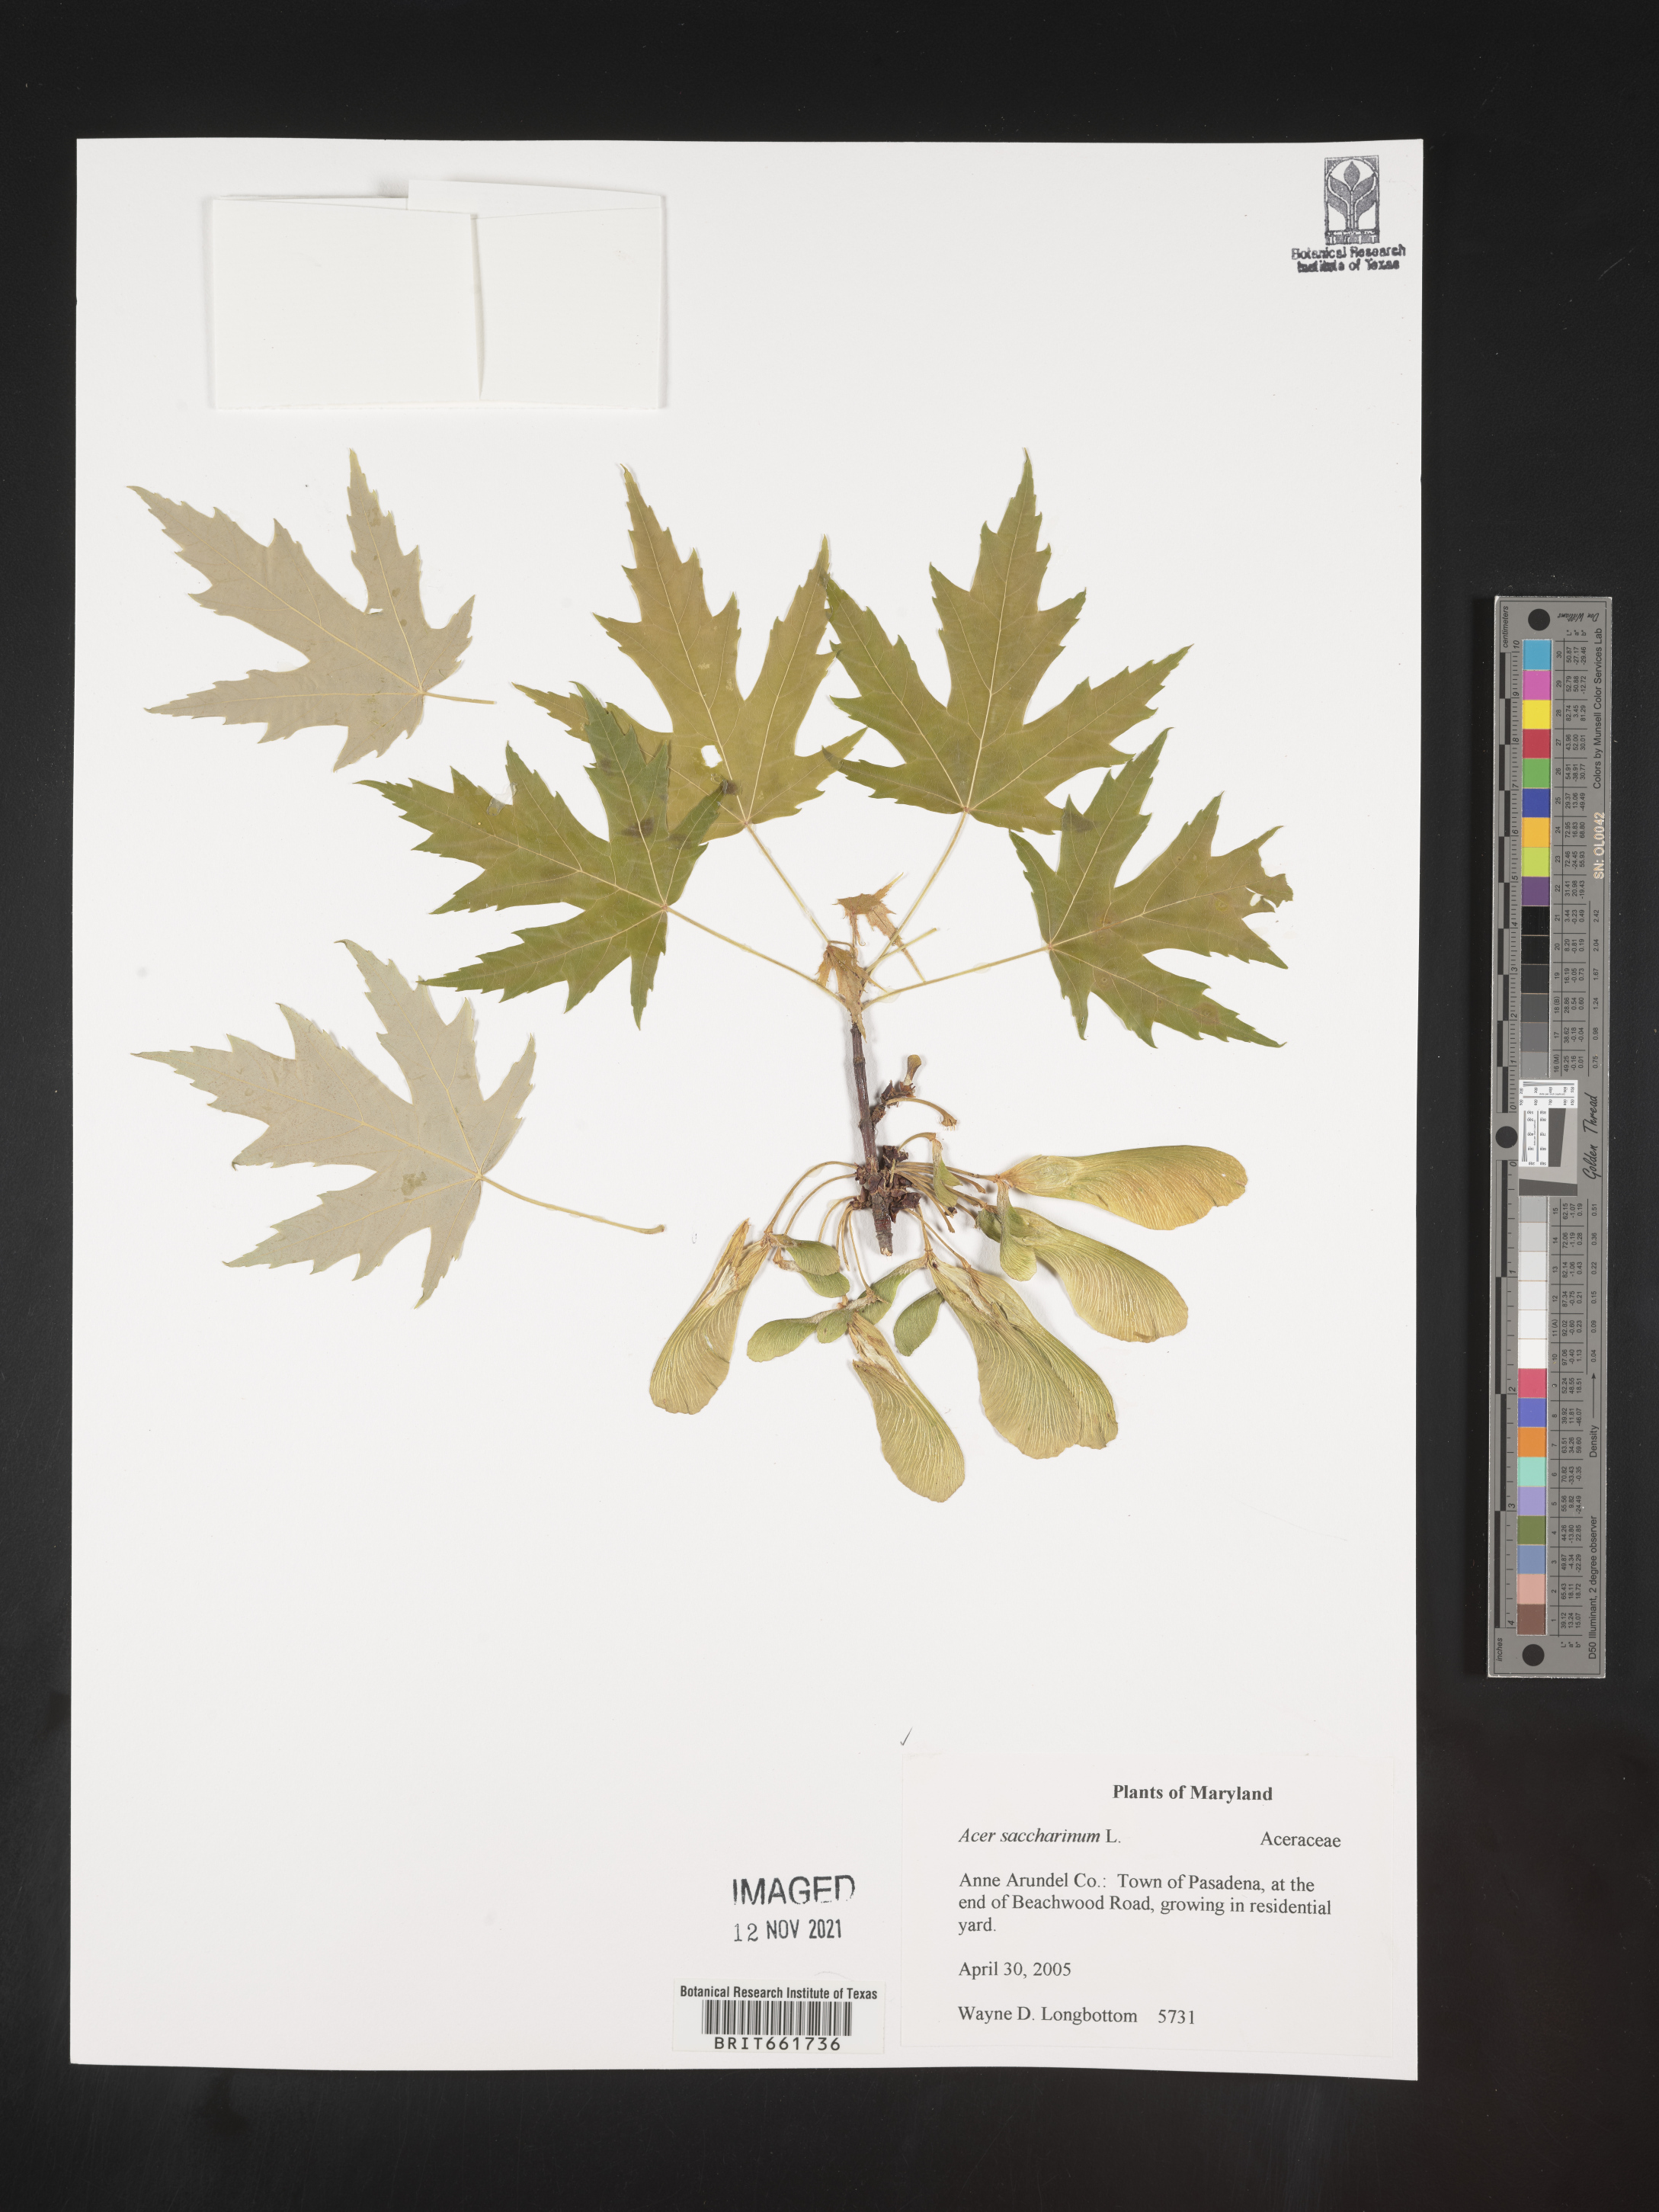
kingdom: Plantae
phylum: Tracheophyta
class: Magnoliopsida
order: Sapindales
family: Sapindaceae
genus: Acer
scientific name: Acer saccharinum
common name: Silver maple
